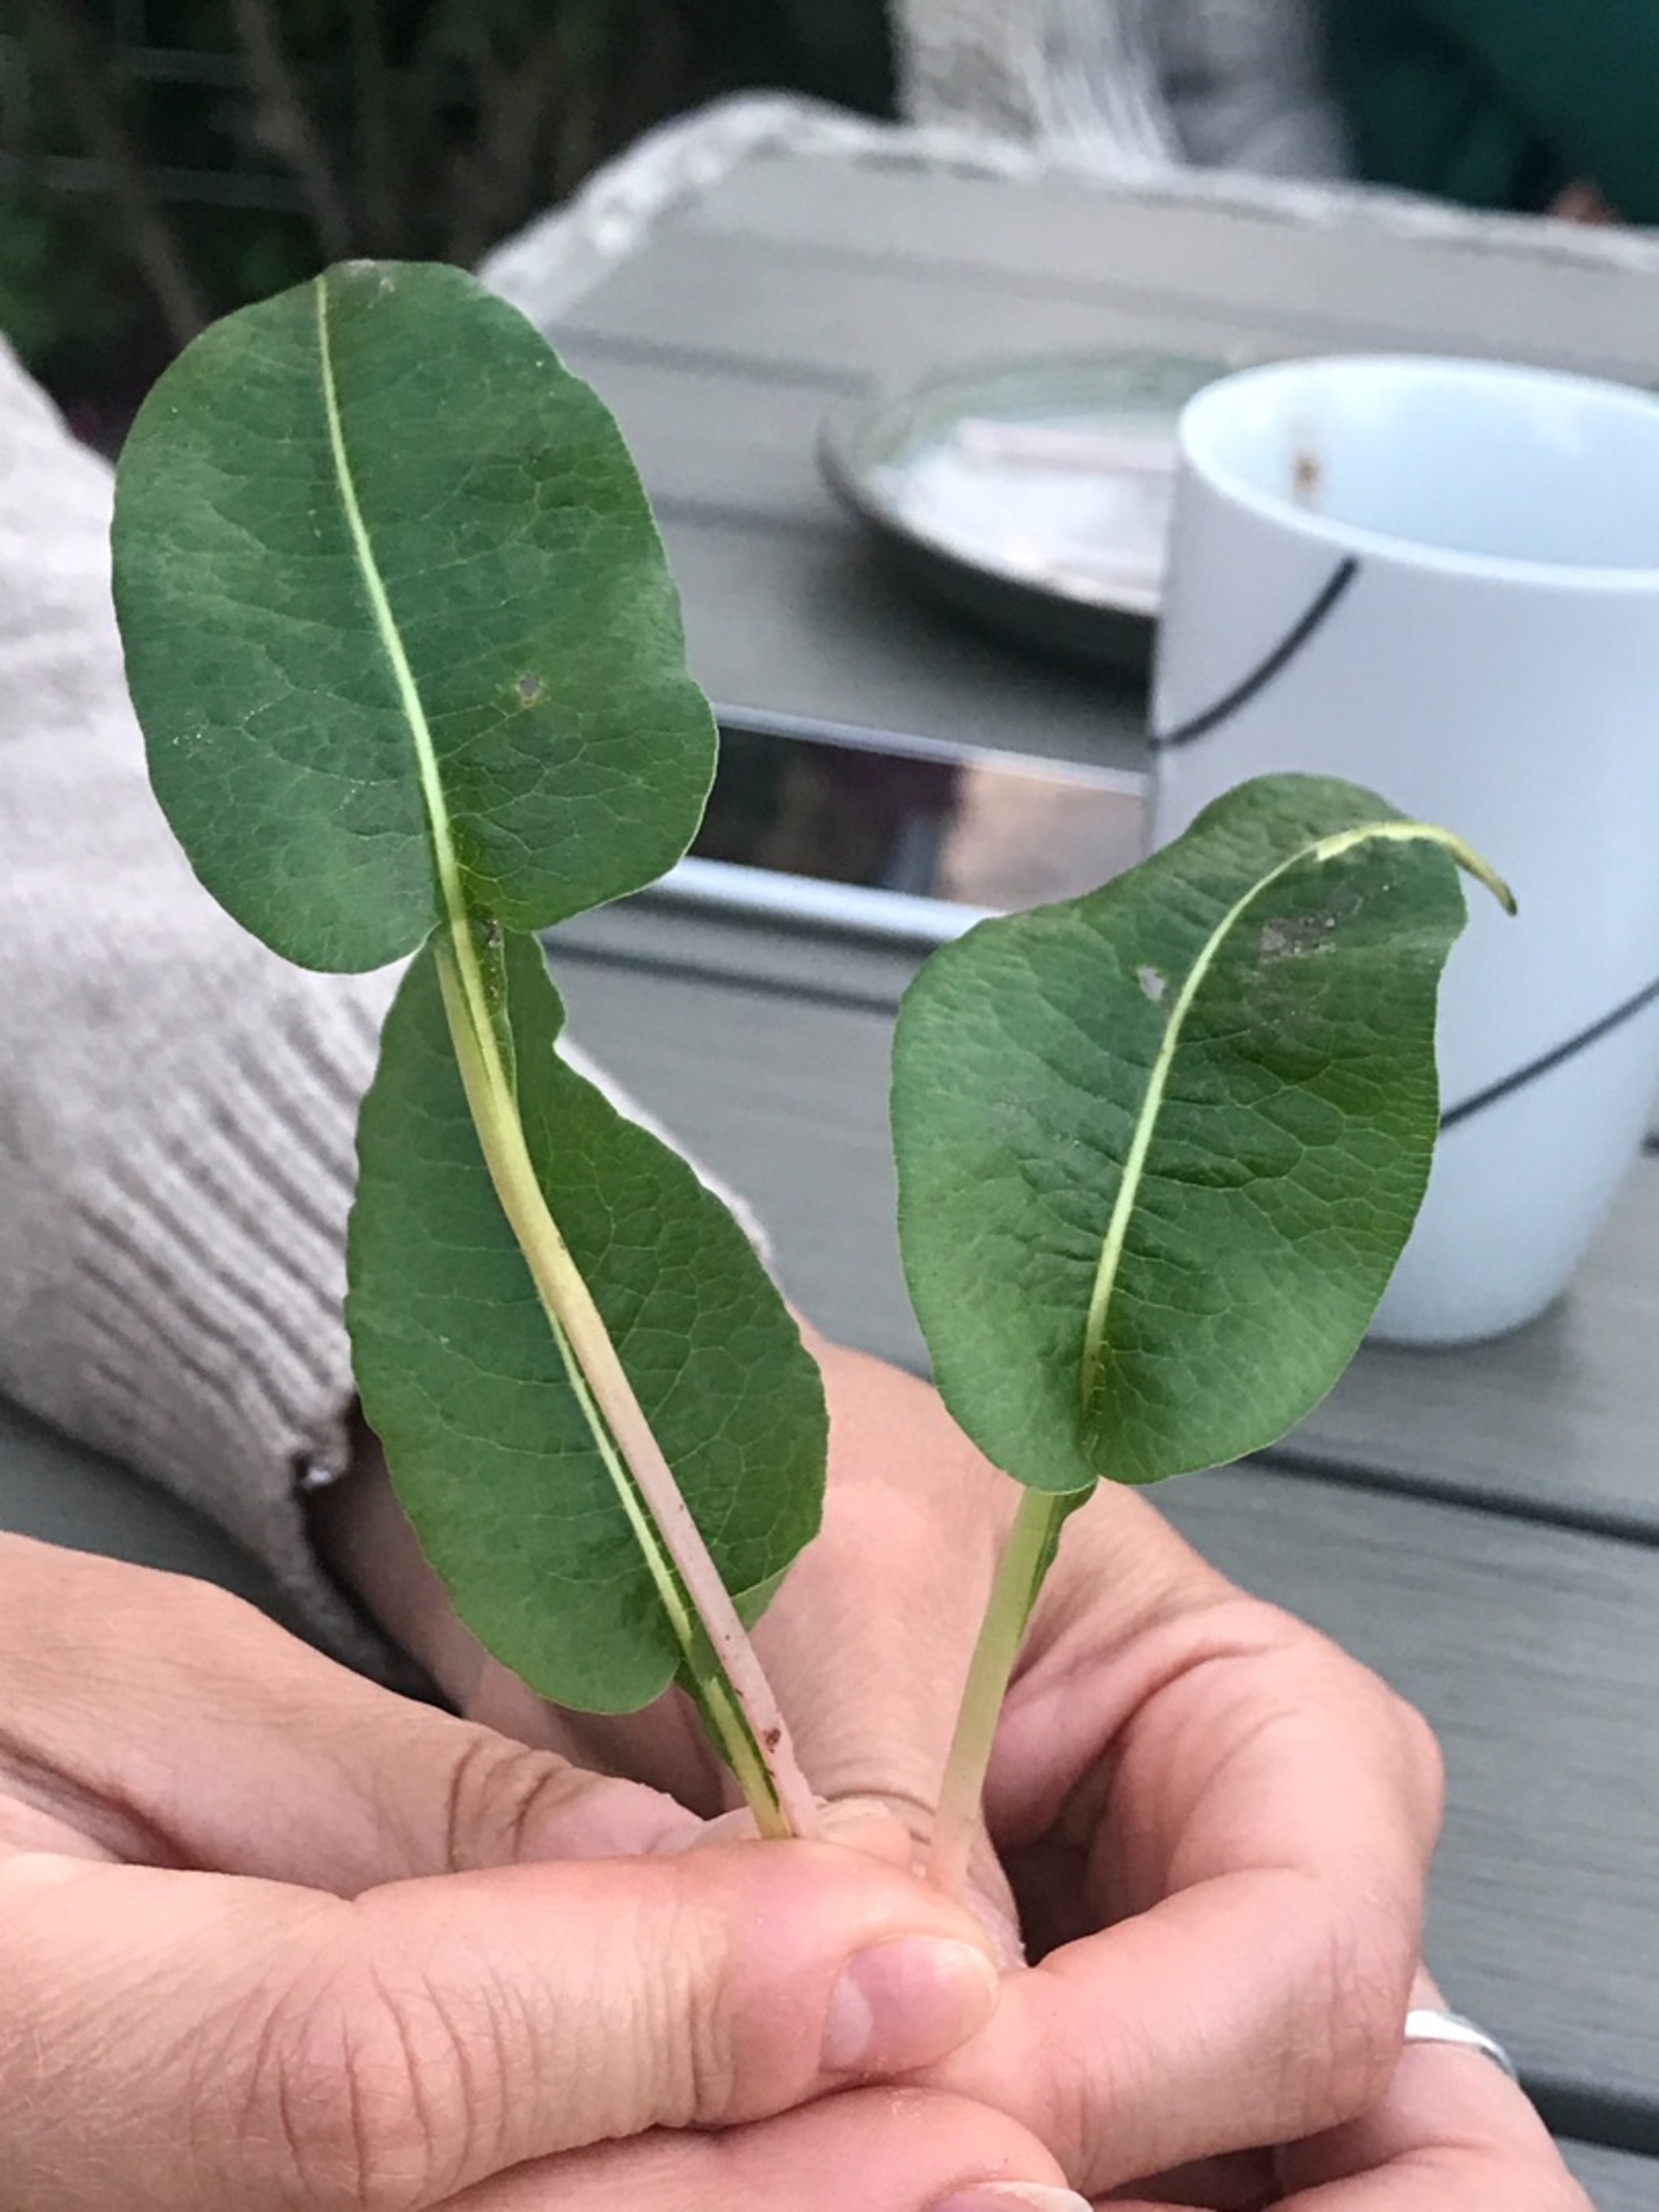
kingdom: Plantae
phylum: Tracheophyta
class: Magnoliopsida
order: Caryophyllales
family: Polygonaceae
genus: Bistorta
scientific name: Bistorta officinalis
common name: Slangeurt
